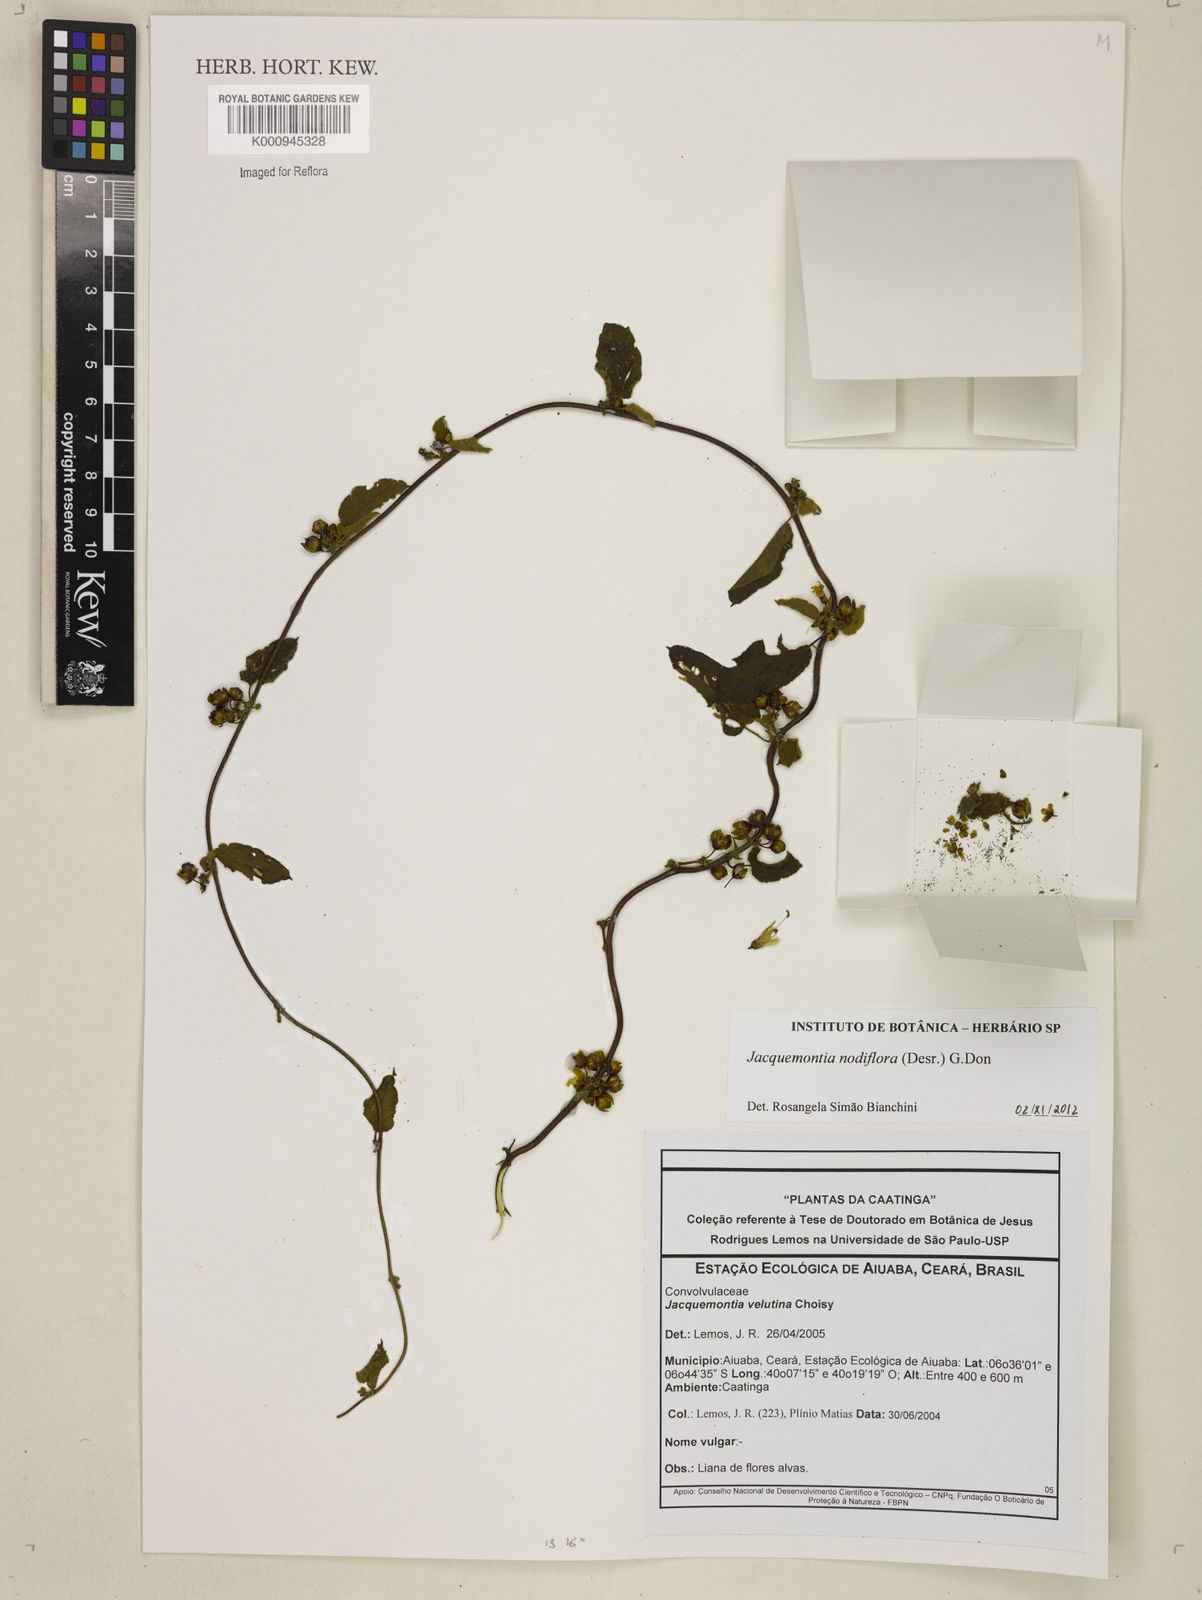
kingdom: Plantae
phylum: Tracheophyta
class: Magnoliopsida
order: Solanales
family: Convolvulaceae
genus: Jacquemontia
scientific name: Jacquemontia nodiflora
